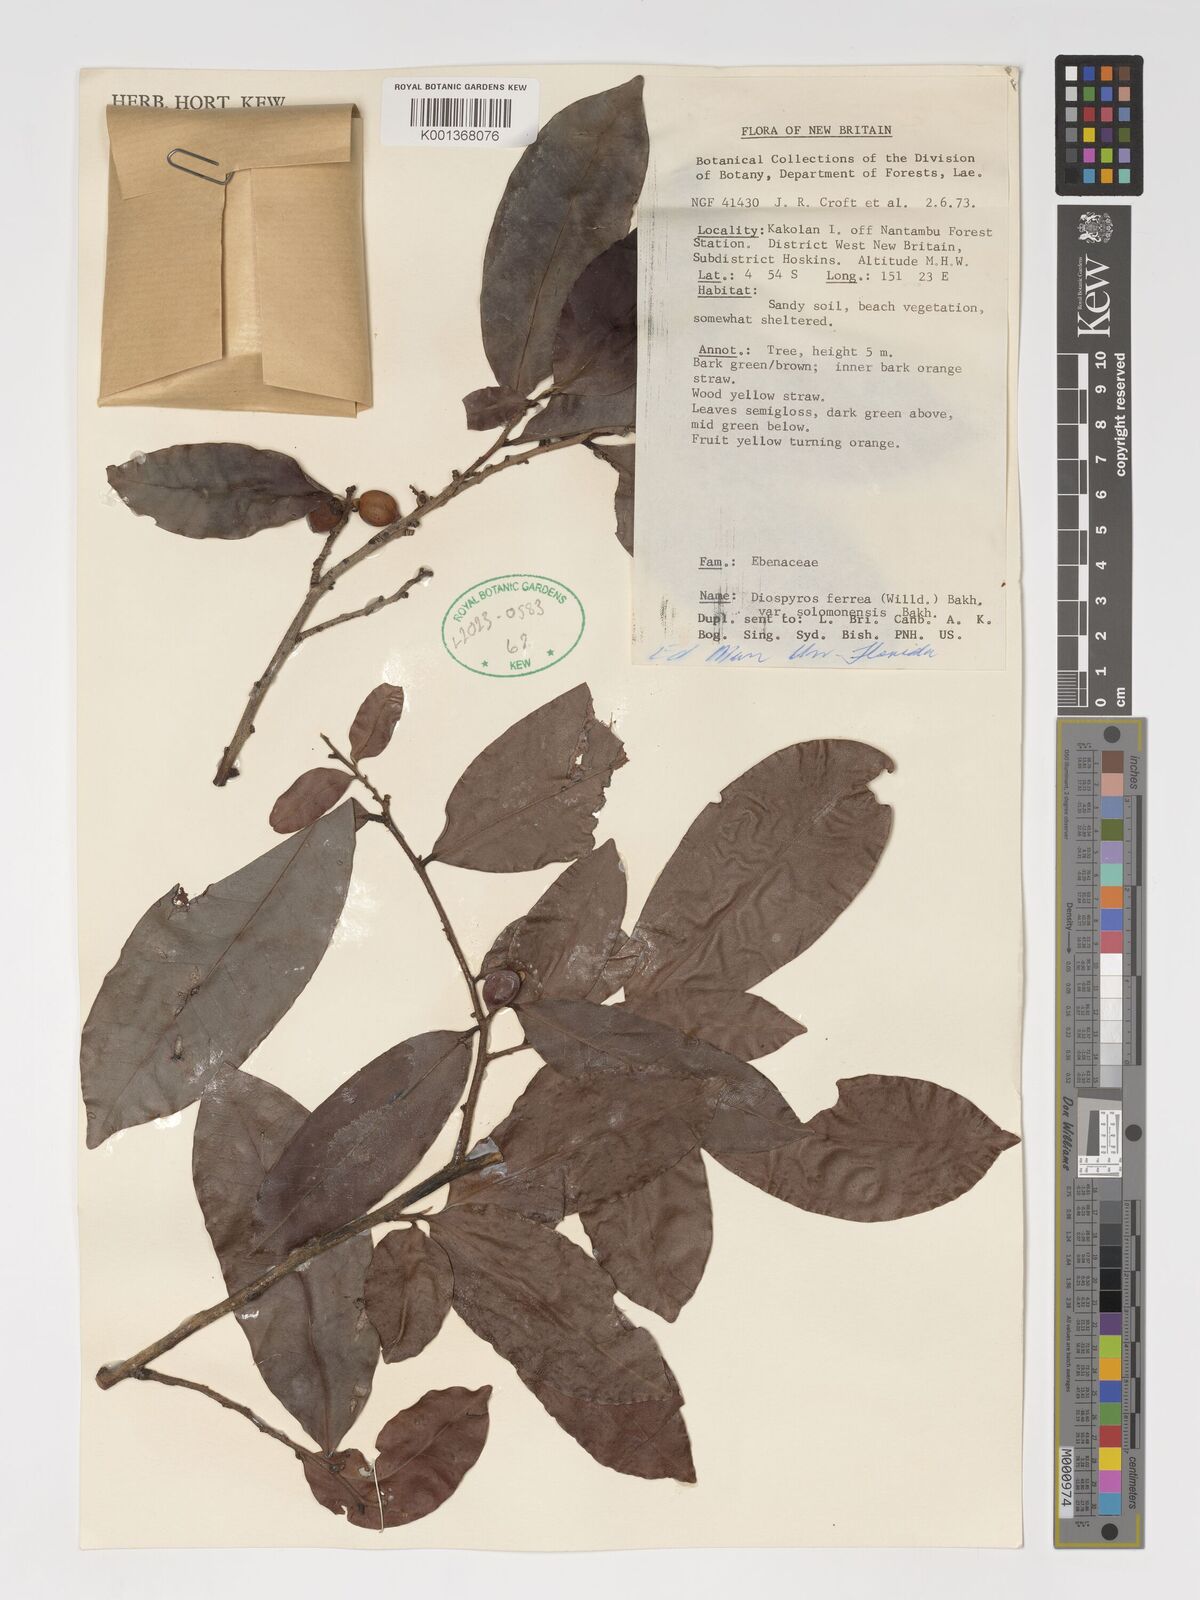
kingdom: Plantae
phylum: Tracheophyta
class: Magnoliopsida
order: Ericales
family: Ebenaceae
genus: Diospyros
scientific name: Diospyros ferrea
